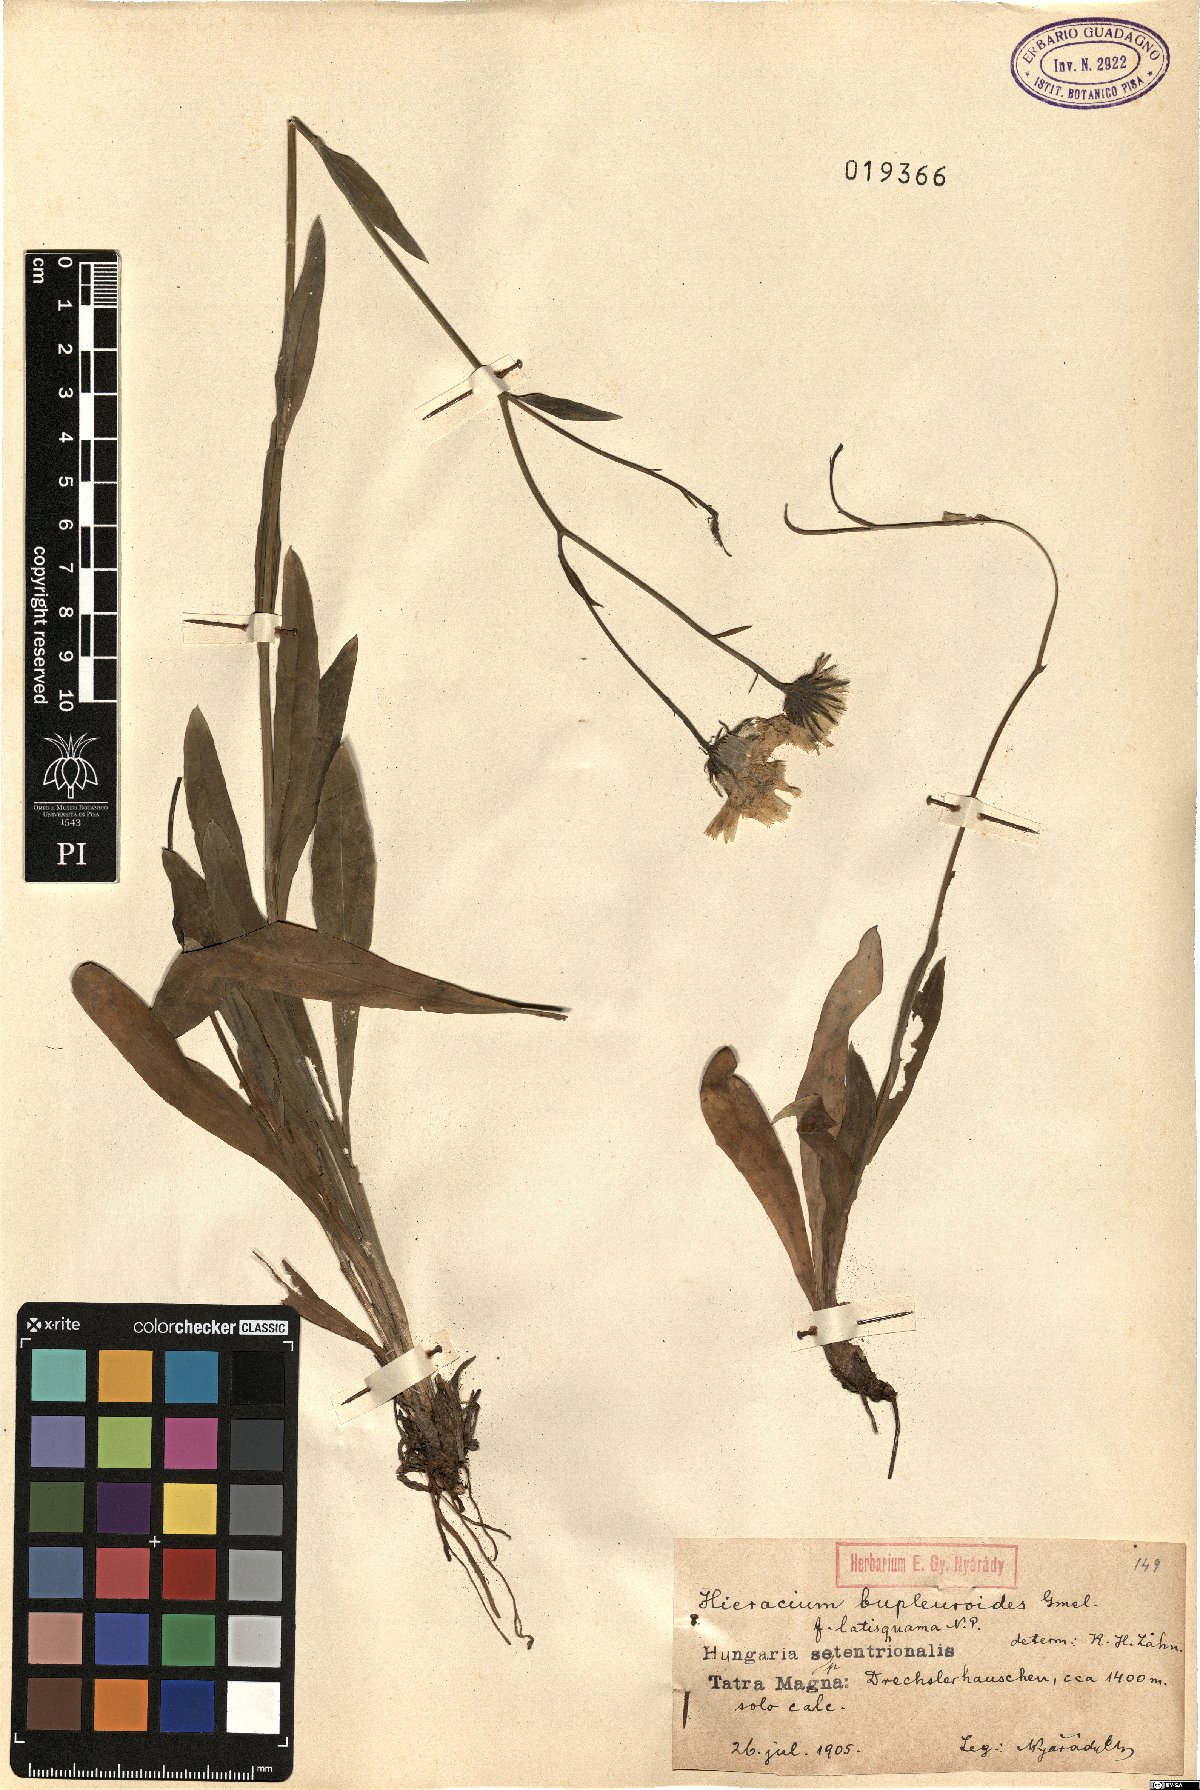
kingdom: Plantae
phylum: Tracheophyta
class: Magnoliopsida
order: Asterales
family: Asteraceae
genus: Hieracium
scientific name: Hieracium bupleuroides
